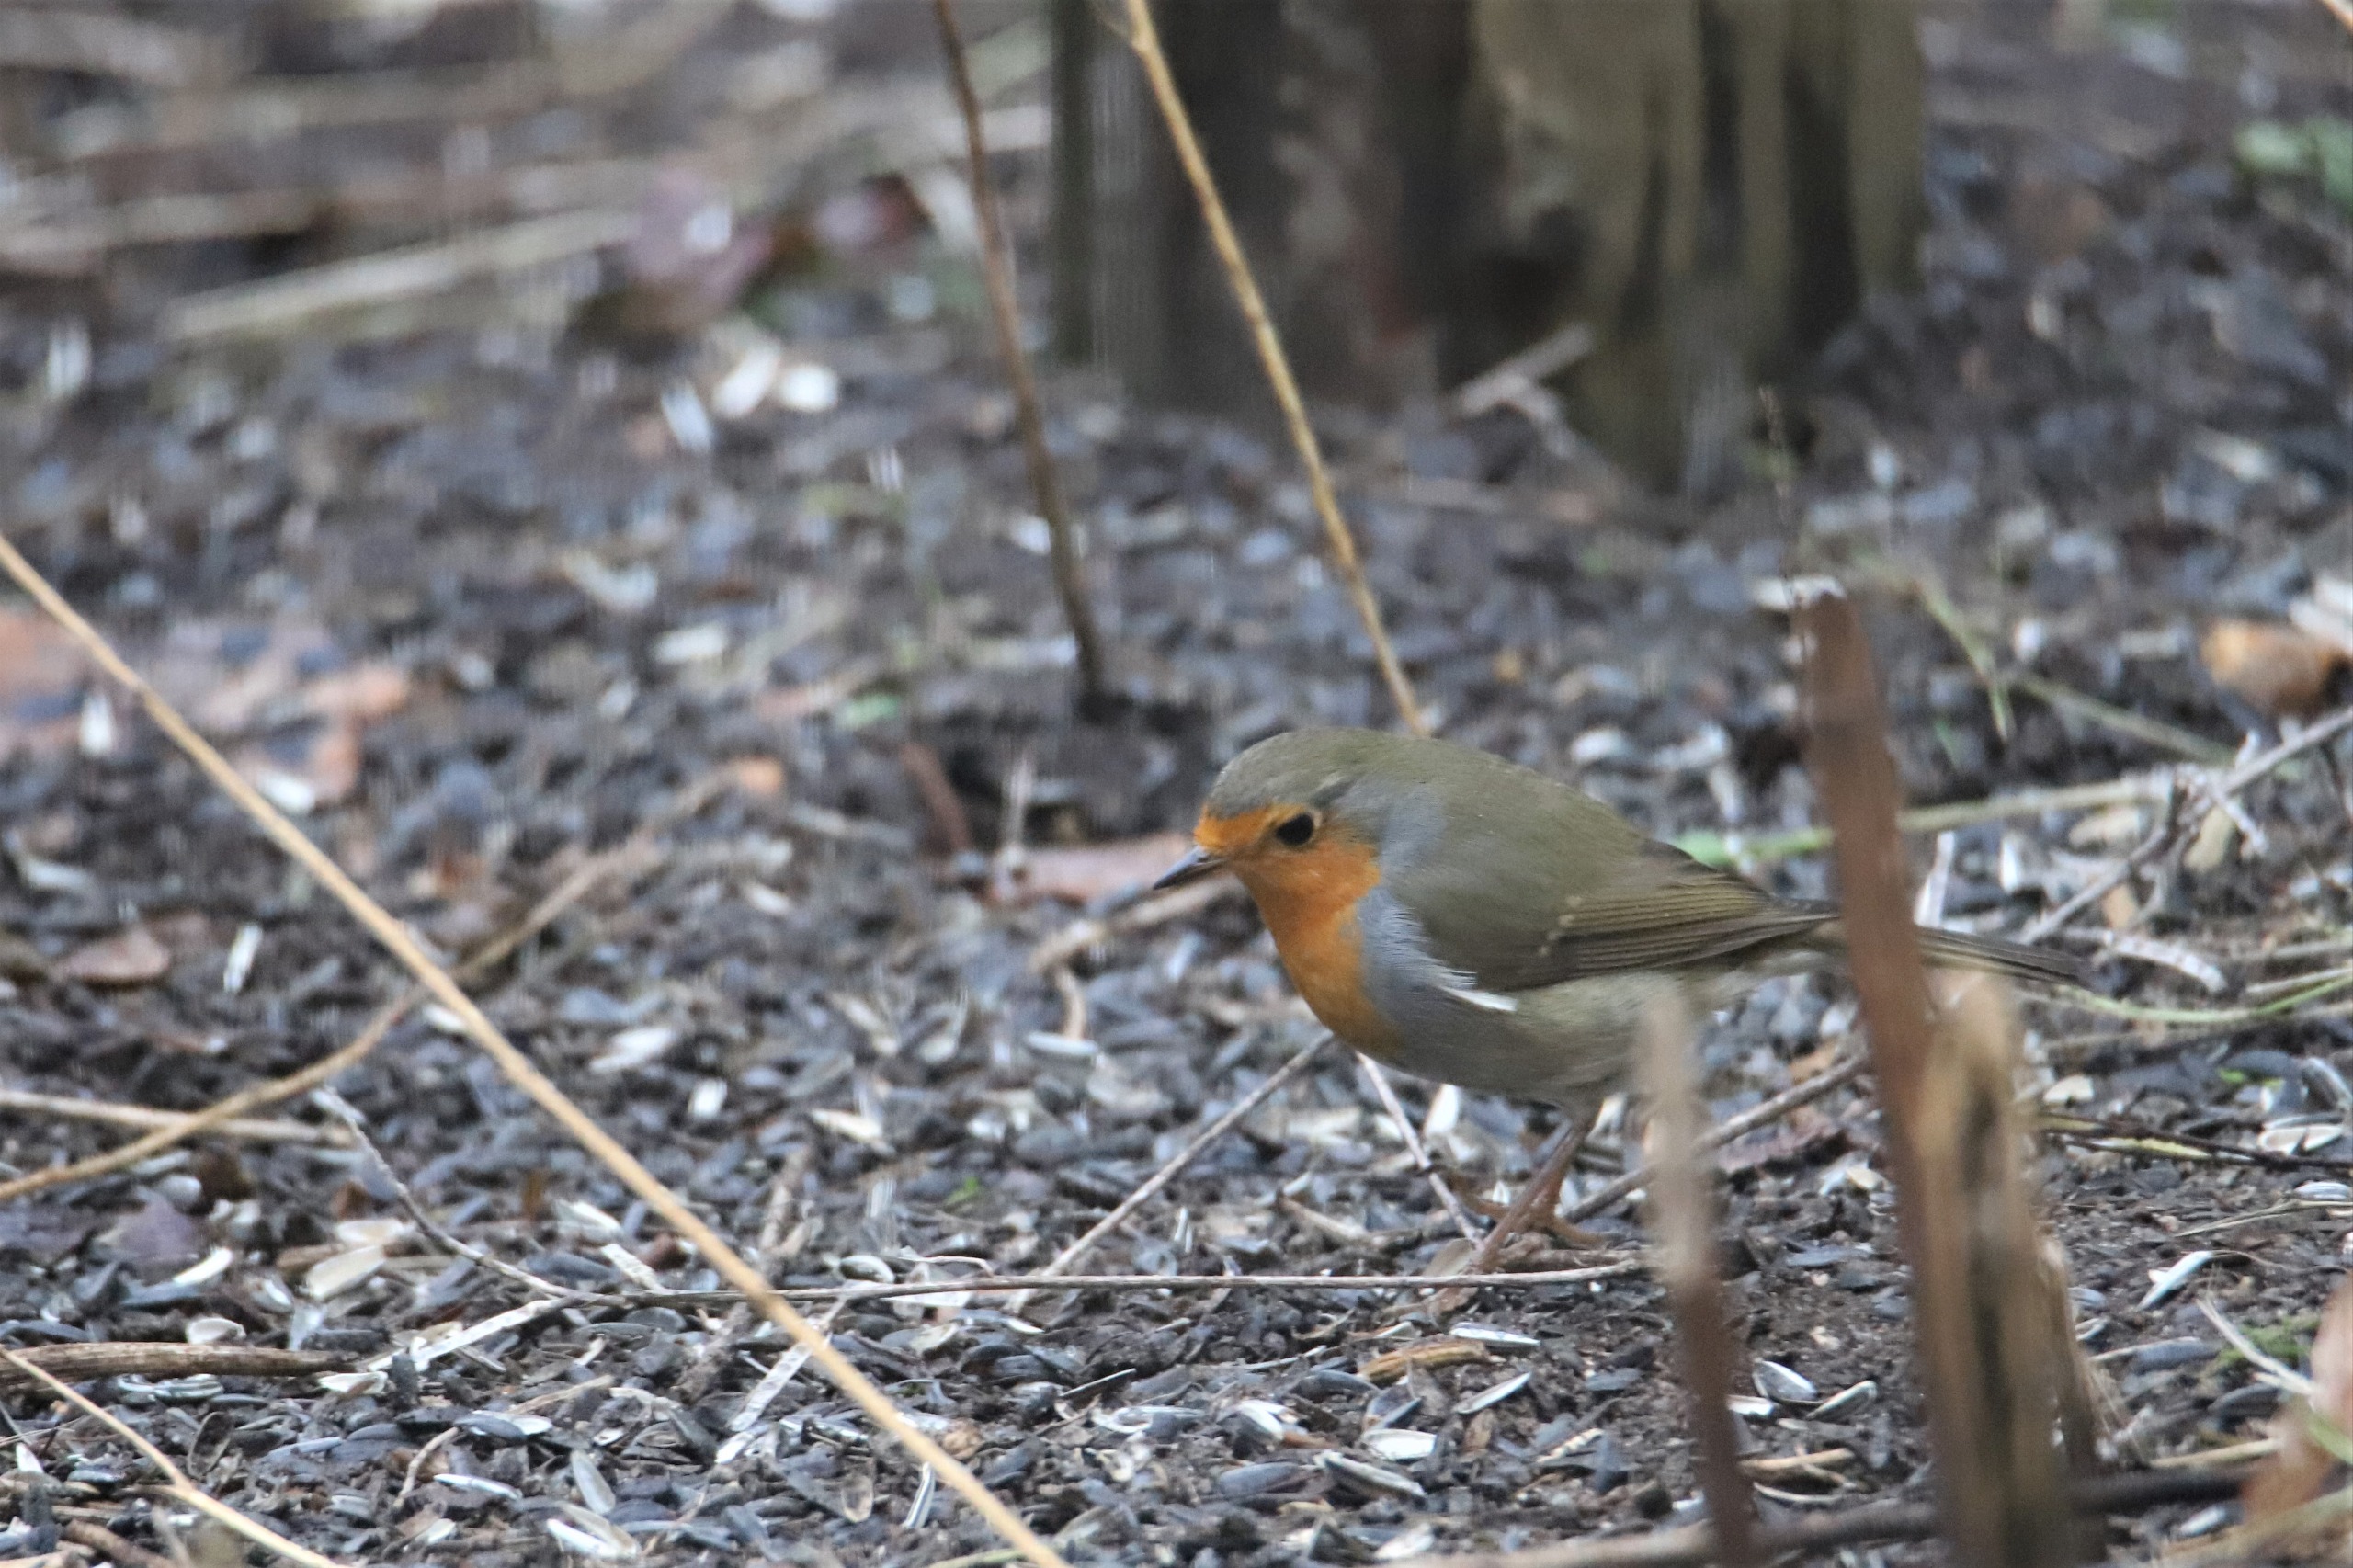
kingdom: Animalia
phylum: Chordata
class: Aves
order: Passeriformes
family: Muscicapidae
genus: Erithacus
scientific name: Erithacus rubecula
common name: Rødhals/rødkælk
